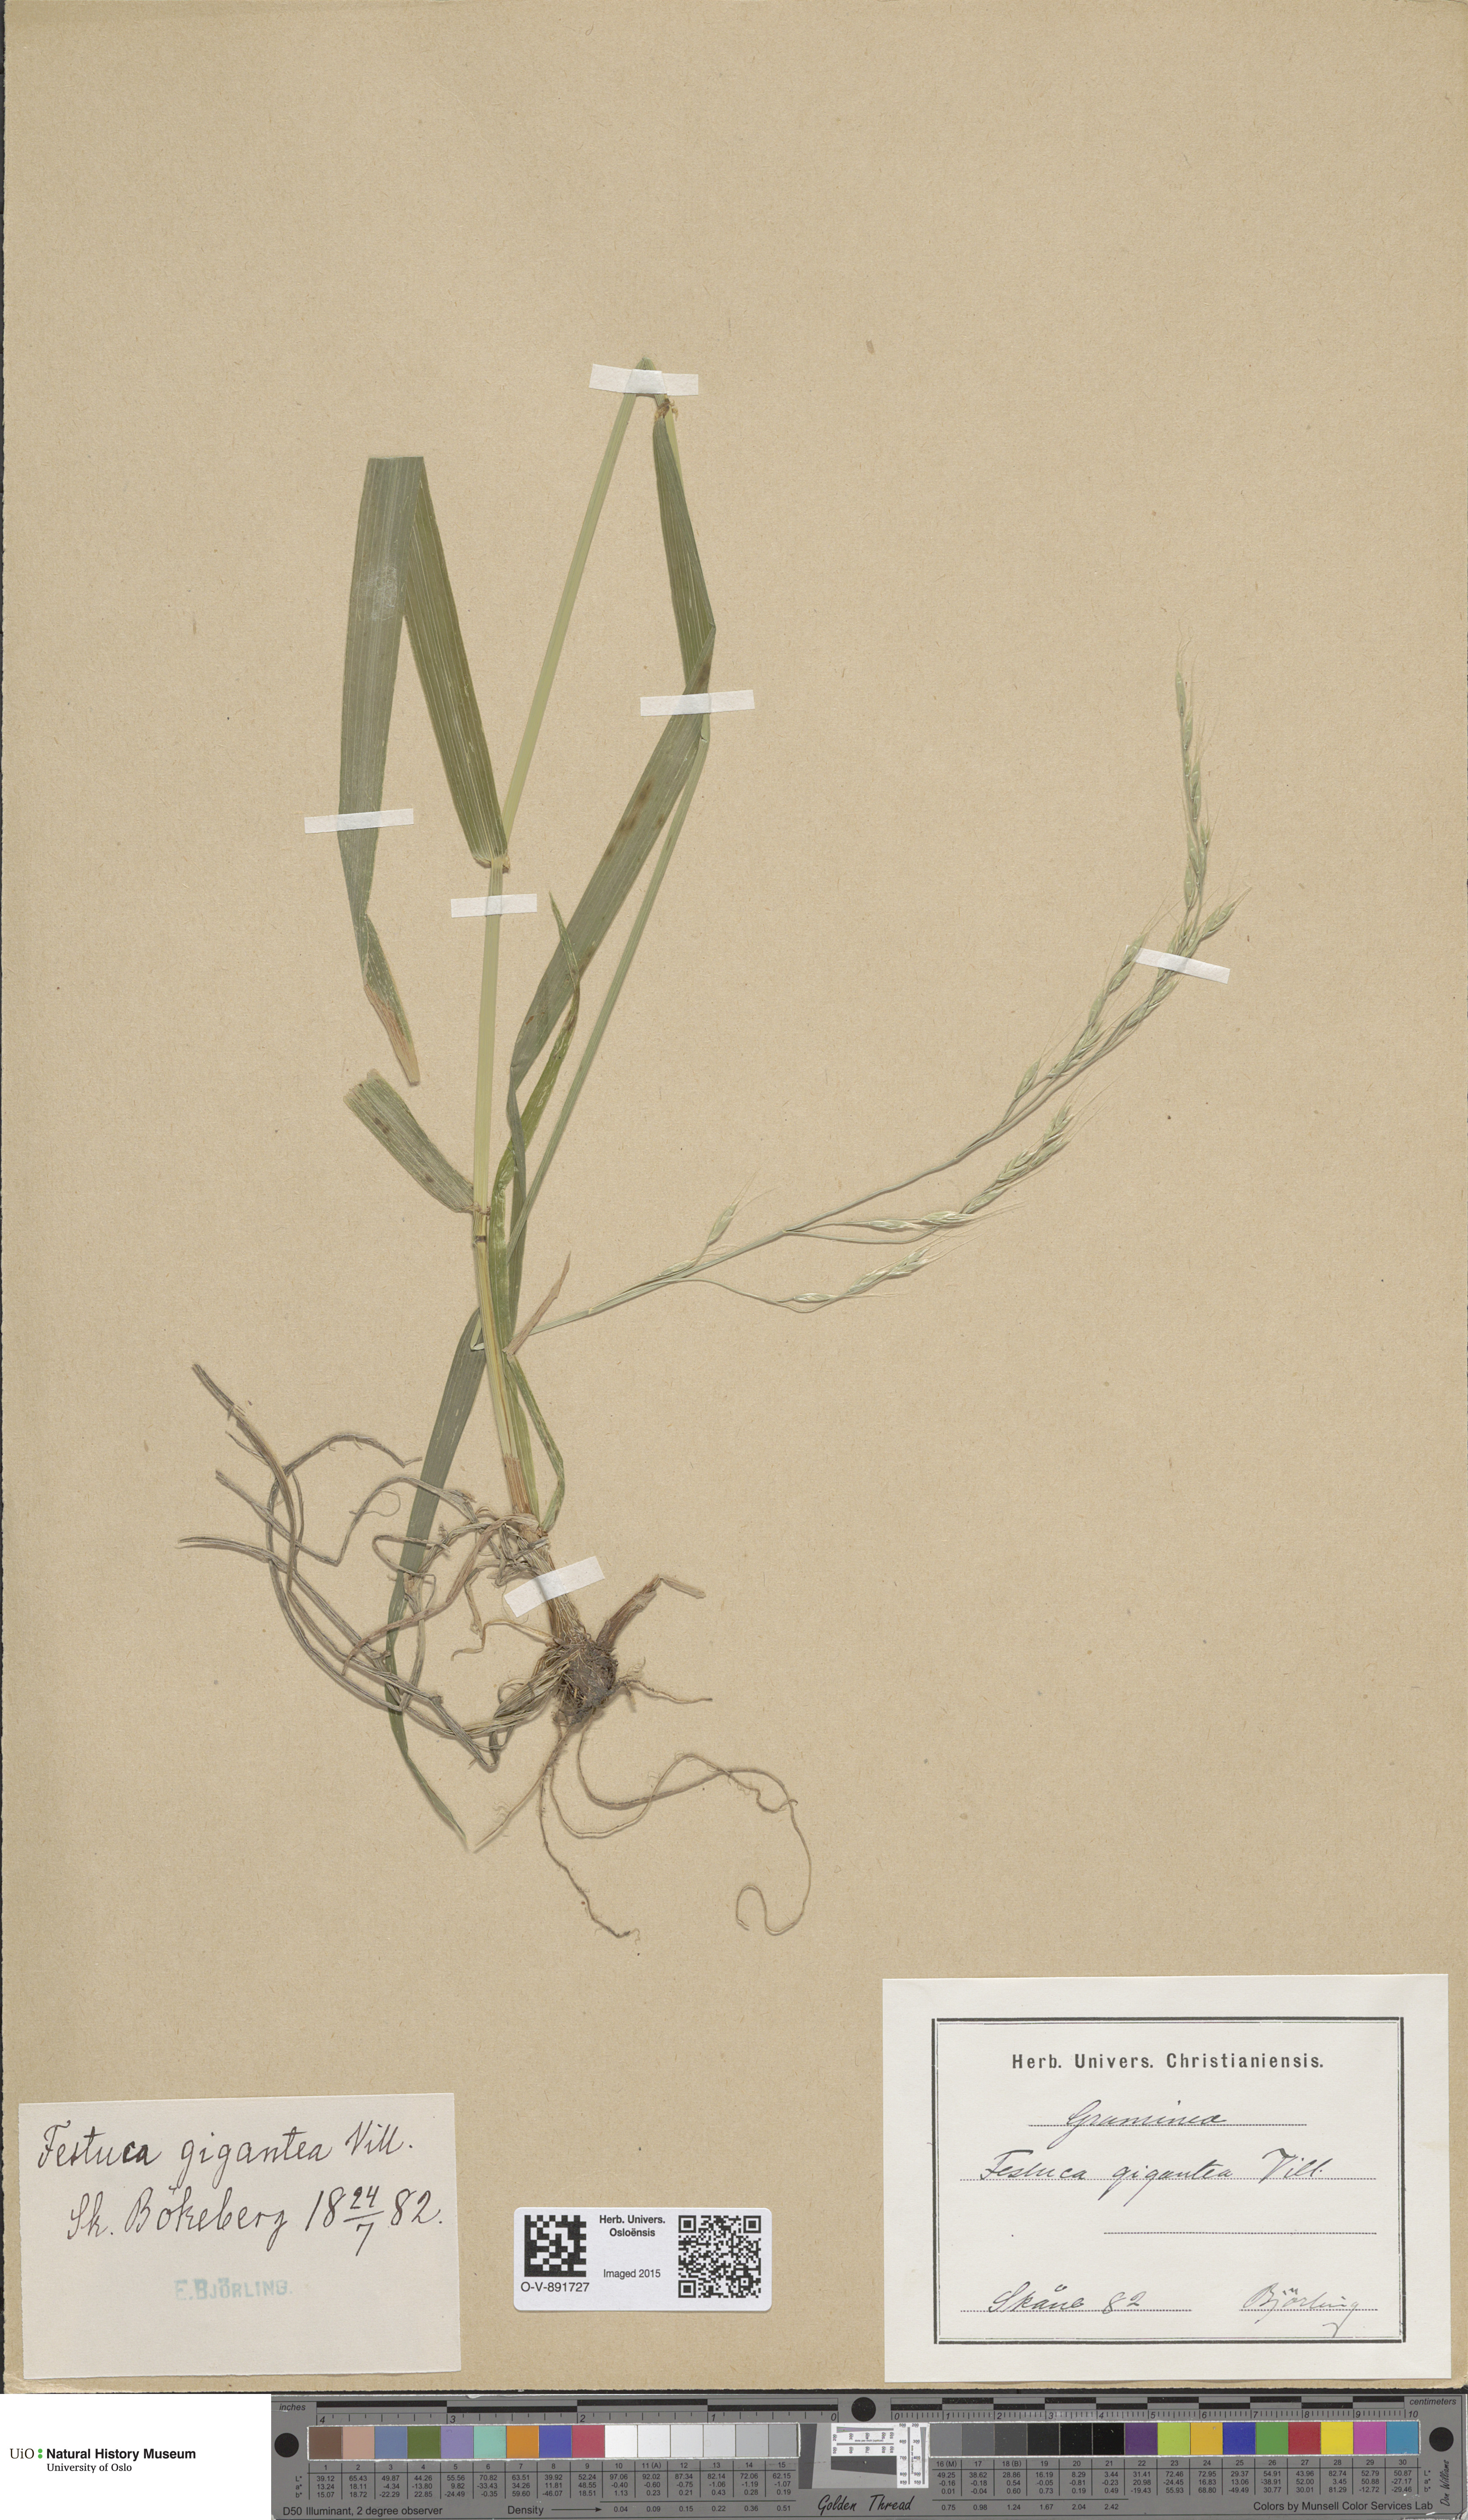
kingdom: Plantae
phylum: Tracheophyta
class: Liliopsida
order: Poales
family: Poaceae
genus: Lolium
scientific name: Lolium giganteum
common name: Giant fescue
